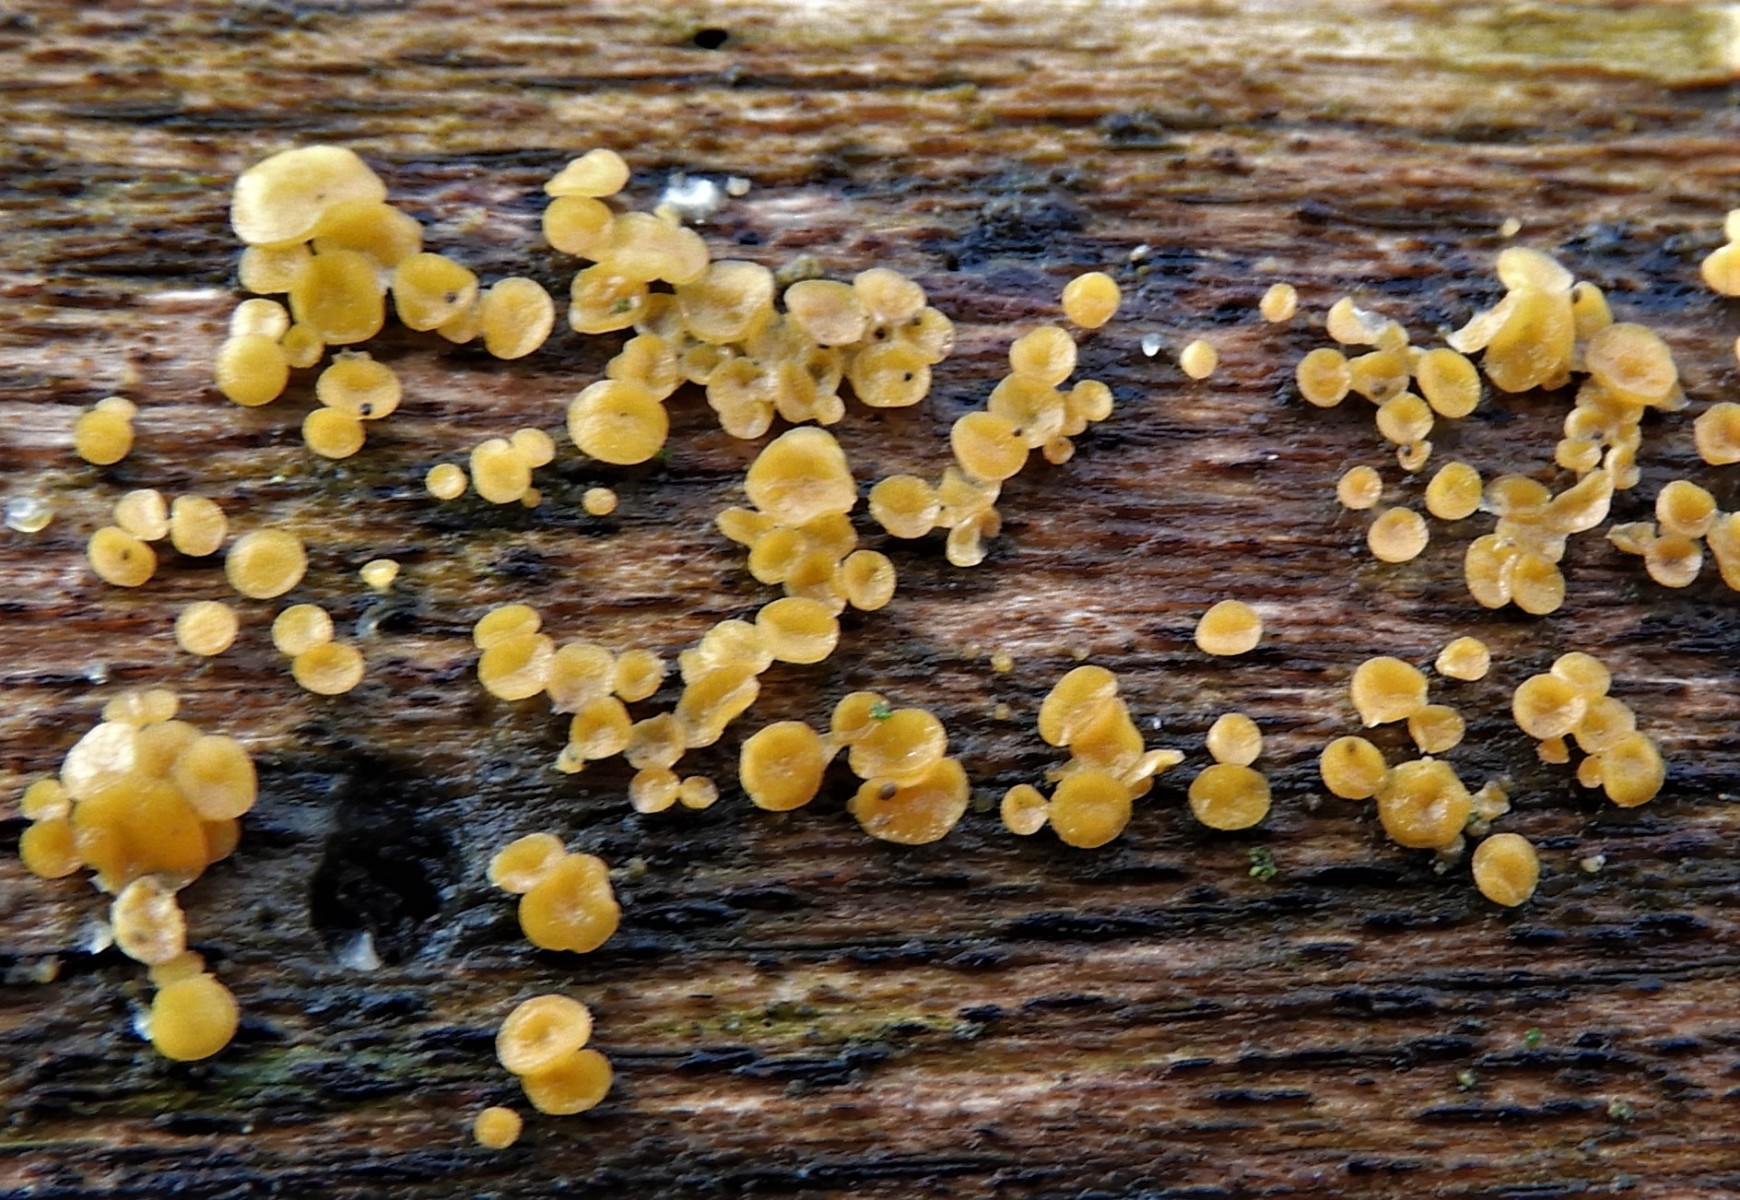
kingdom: Fungi
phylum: Ascomycota
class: Leotiomycetes
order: Helotiales
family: Pezizellaceae
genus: Calycina
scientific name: Calycina citrina
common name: almindelig gulskive
